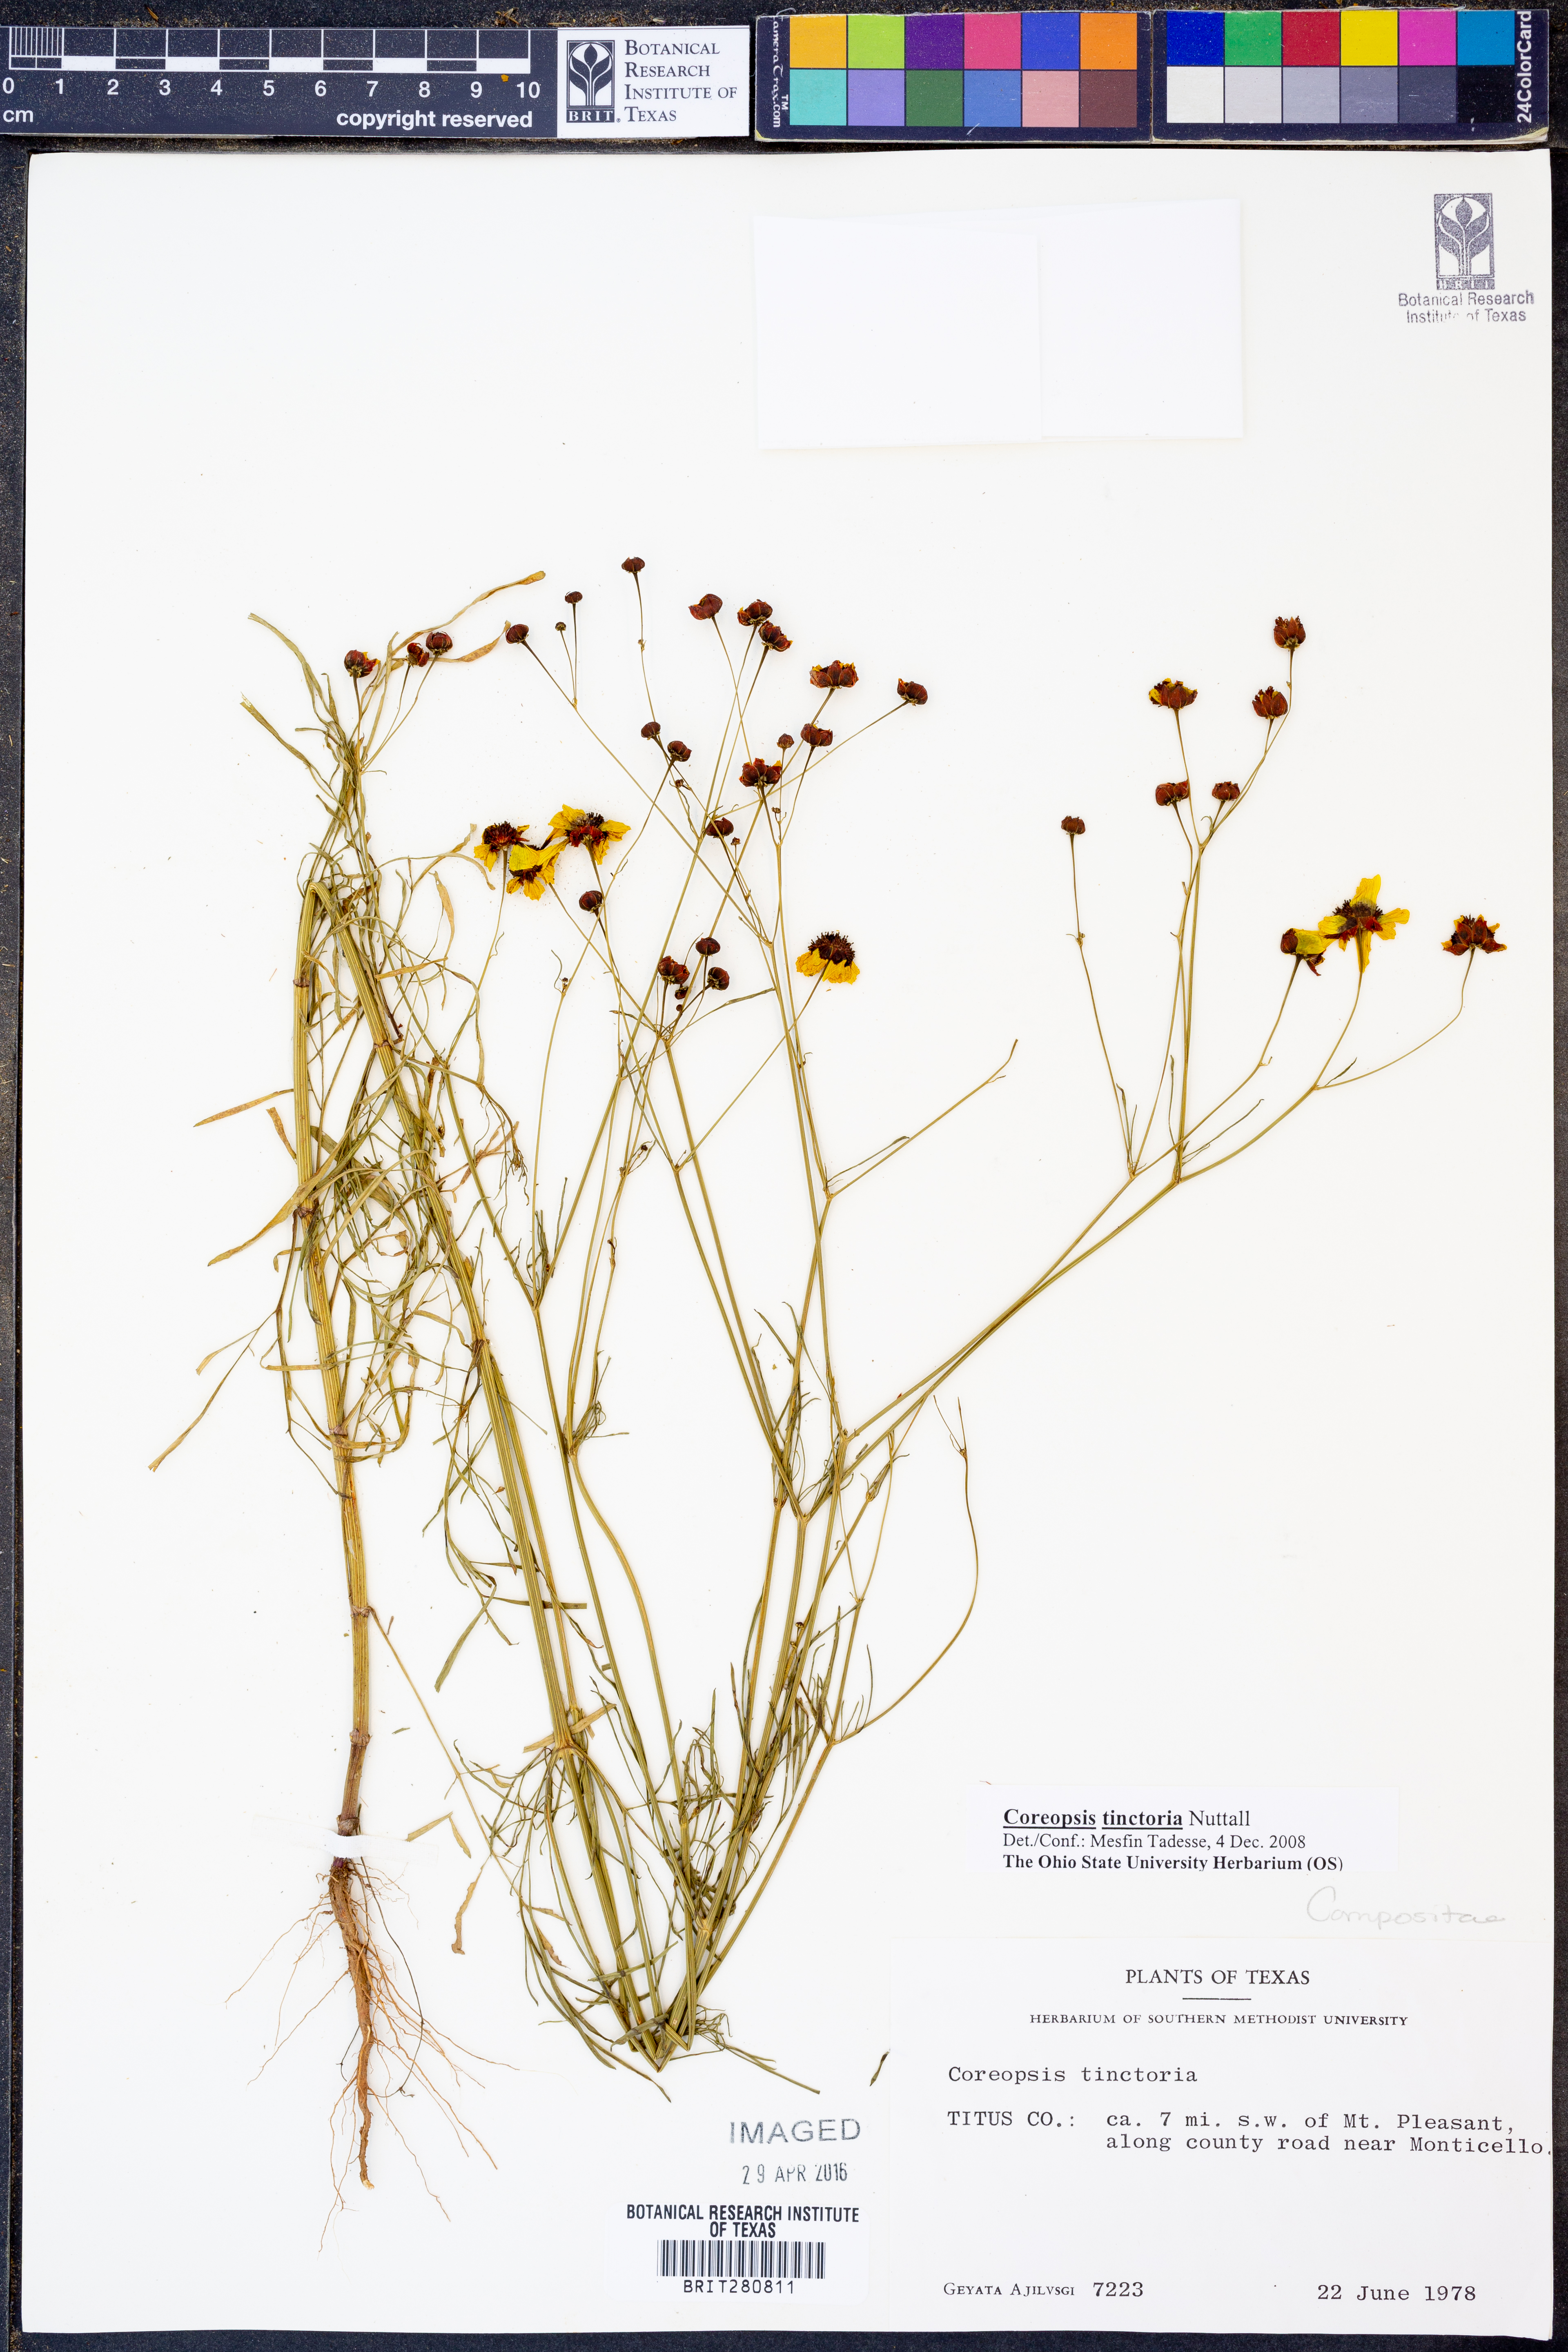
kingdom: Plantae
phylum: Tracheophyta
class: Magnoliopsida
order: Asterales
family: Asteraceae
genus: Coreopsis
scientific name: Coreopsis tinctoria
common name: Garden tickseed
